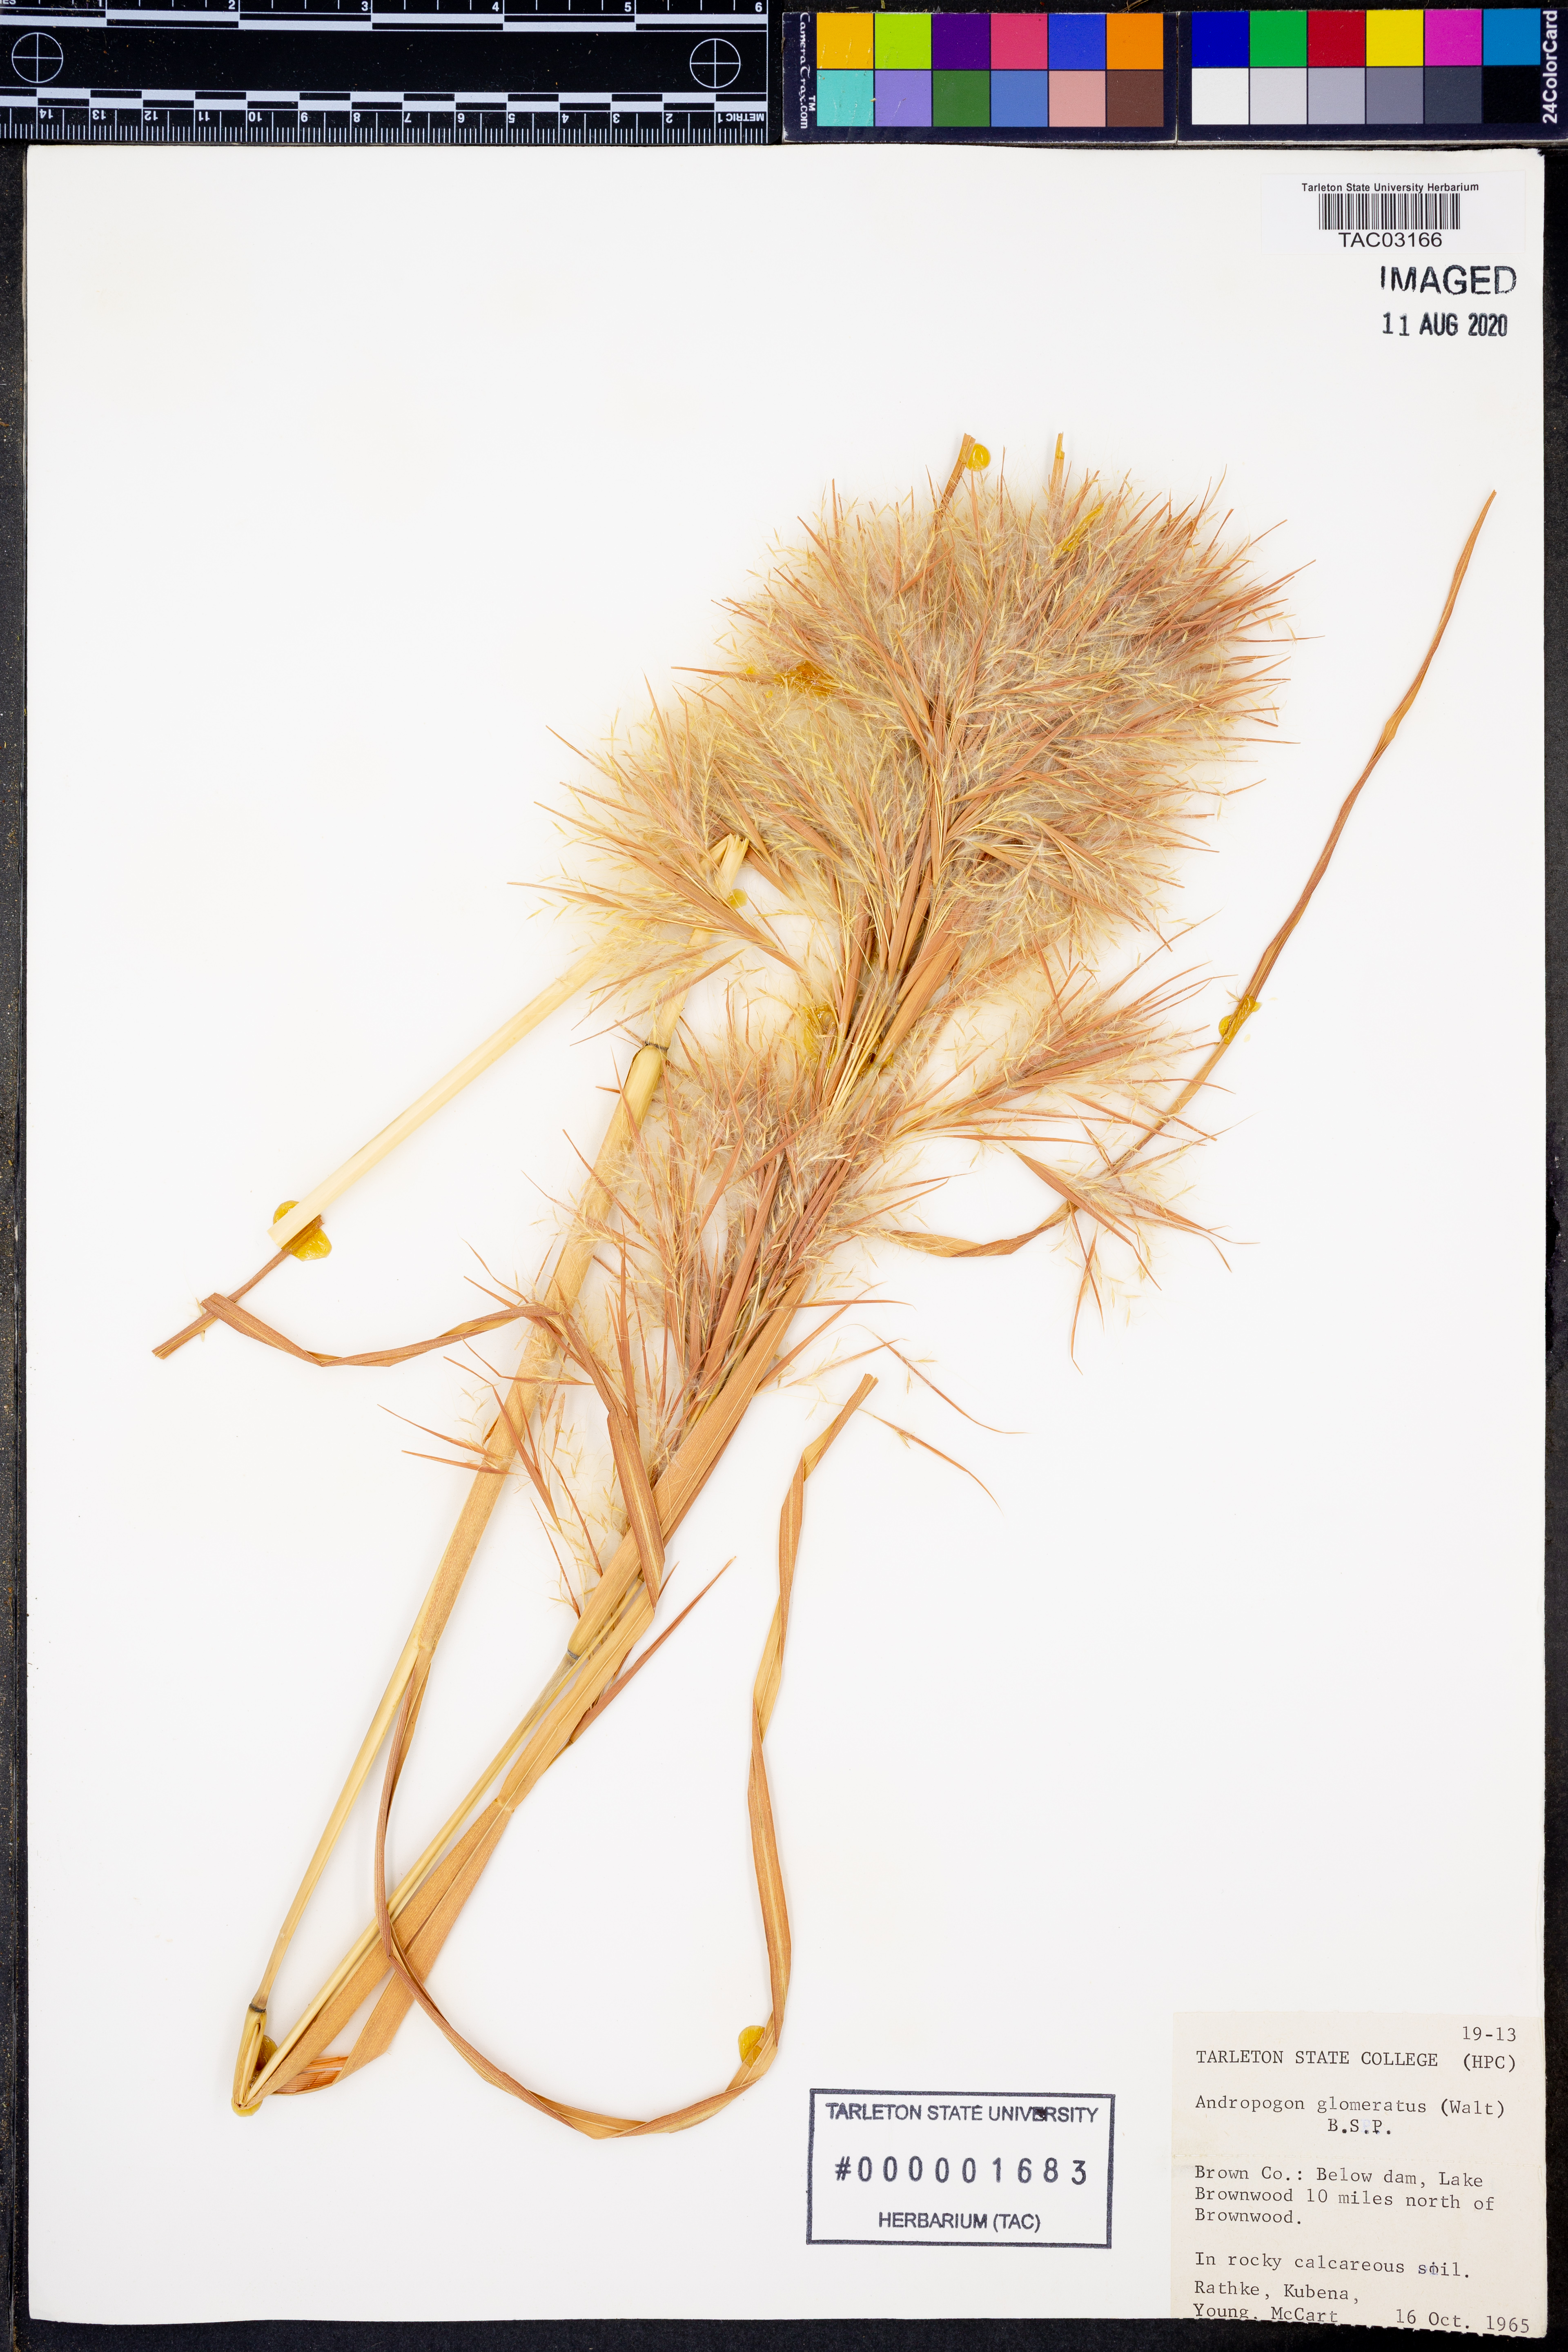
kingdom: Plantae
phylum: Tracheophyta
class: Liliopsida
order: Poales
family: Poaceae
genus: Andropogon
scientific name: Andropogon glomeratus
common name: Bushy beard grass
